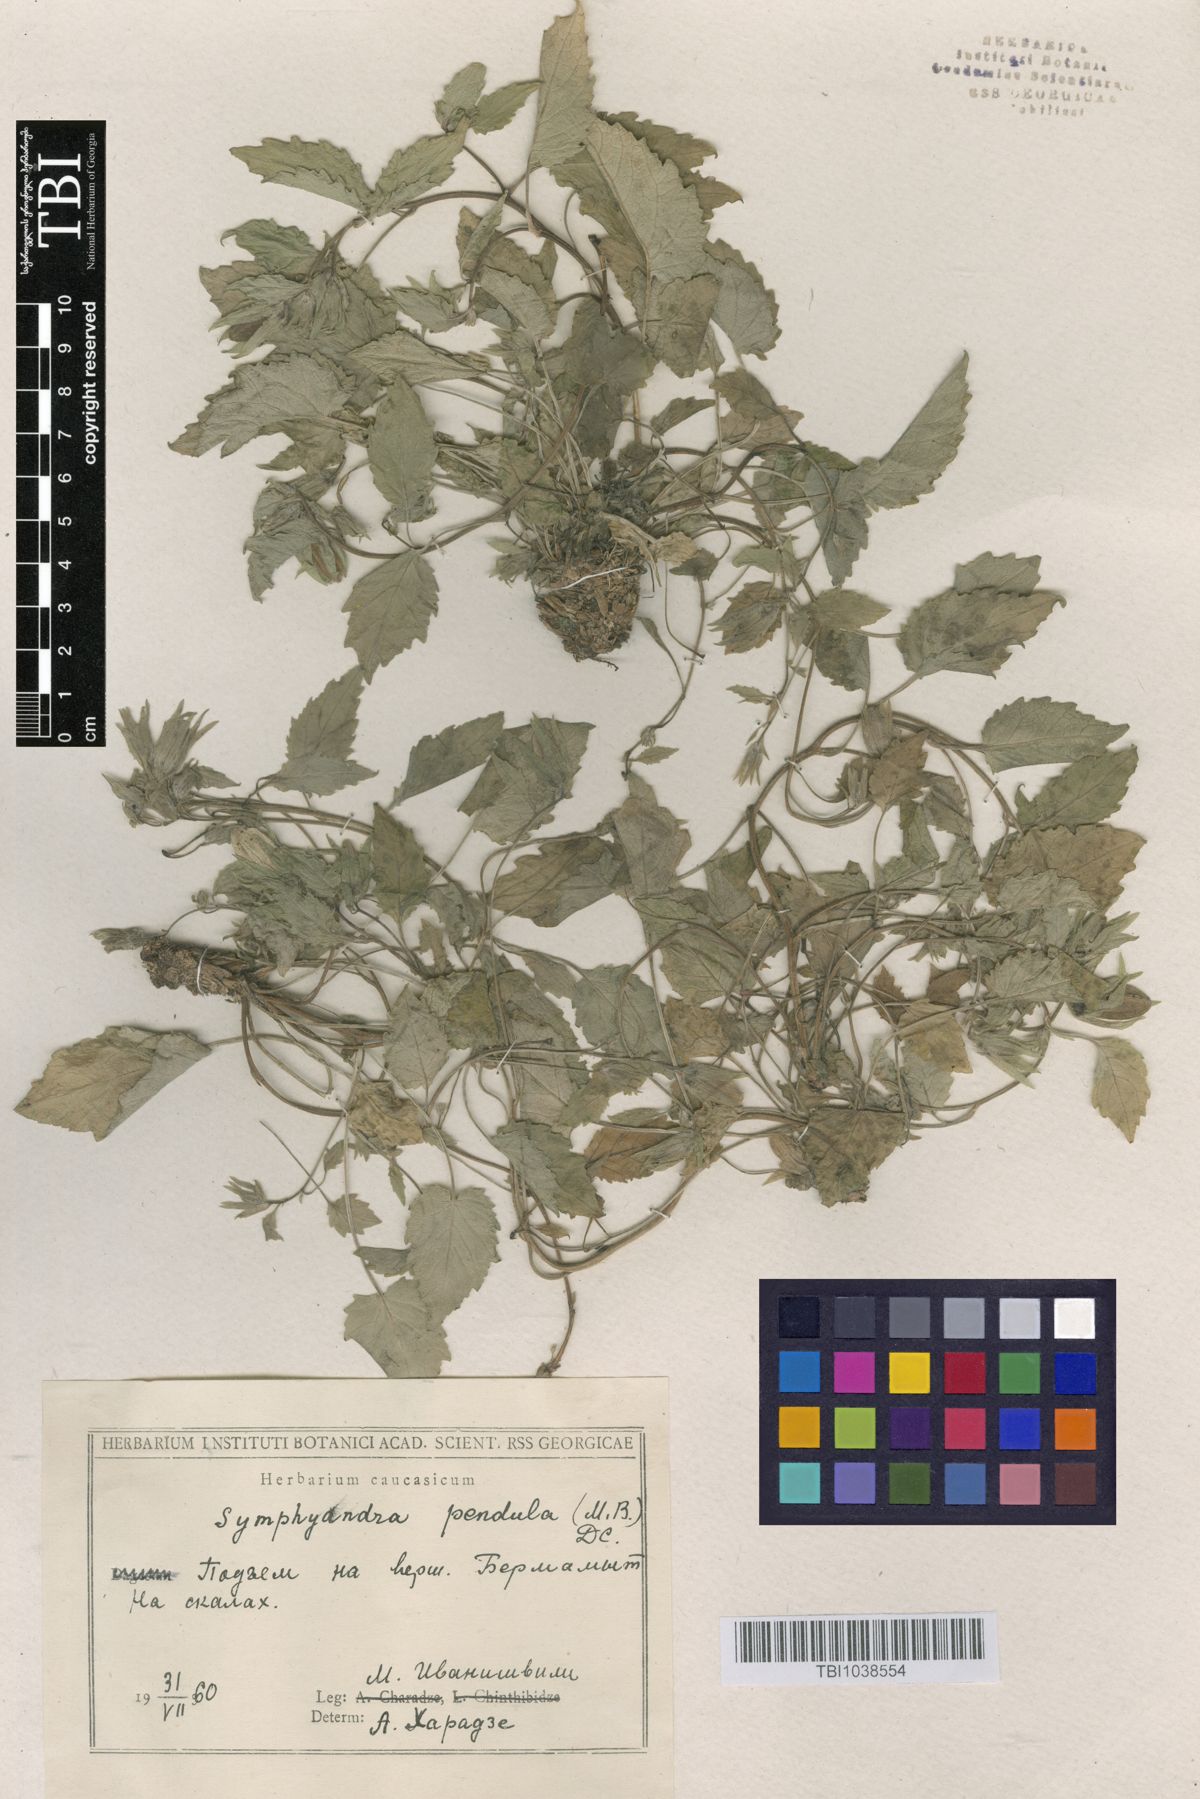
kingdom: Plantae
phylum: Tracheophyta
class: Magnoliopsida
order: Asterales
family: Campanulaceae
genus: Campanula
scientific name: Campanula pendula
